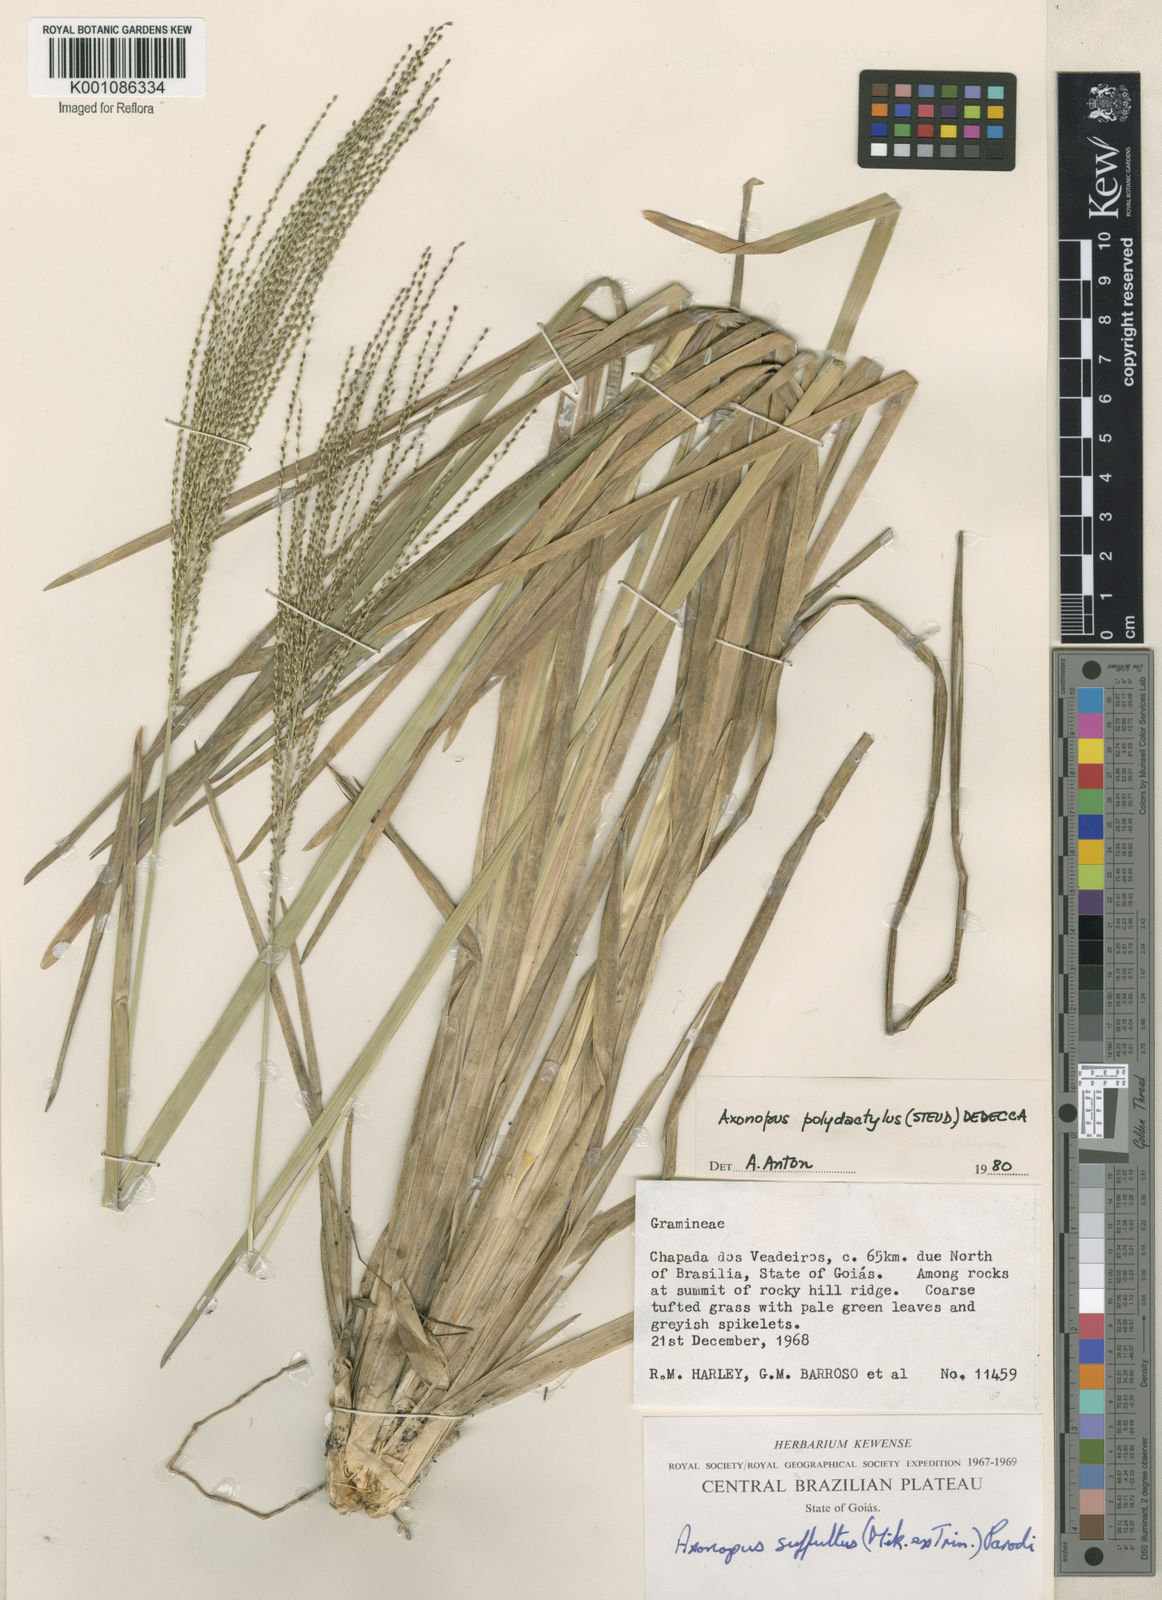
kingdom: Plantae
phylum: Tracheophyta
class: Liliopsida
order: Poales
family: Poaceae
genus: Axonopus
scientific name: Axonopus polydactylus
